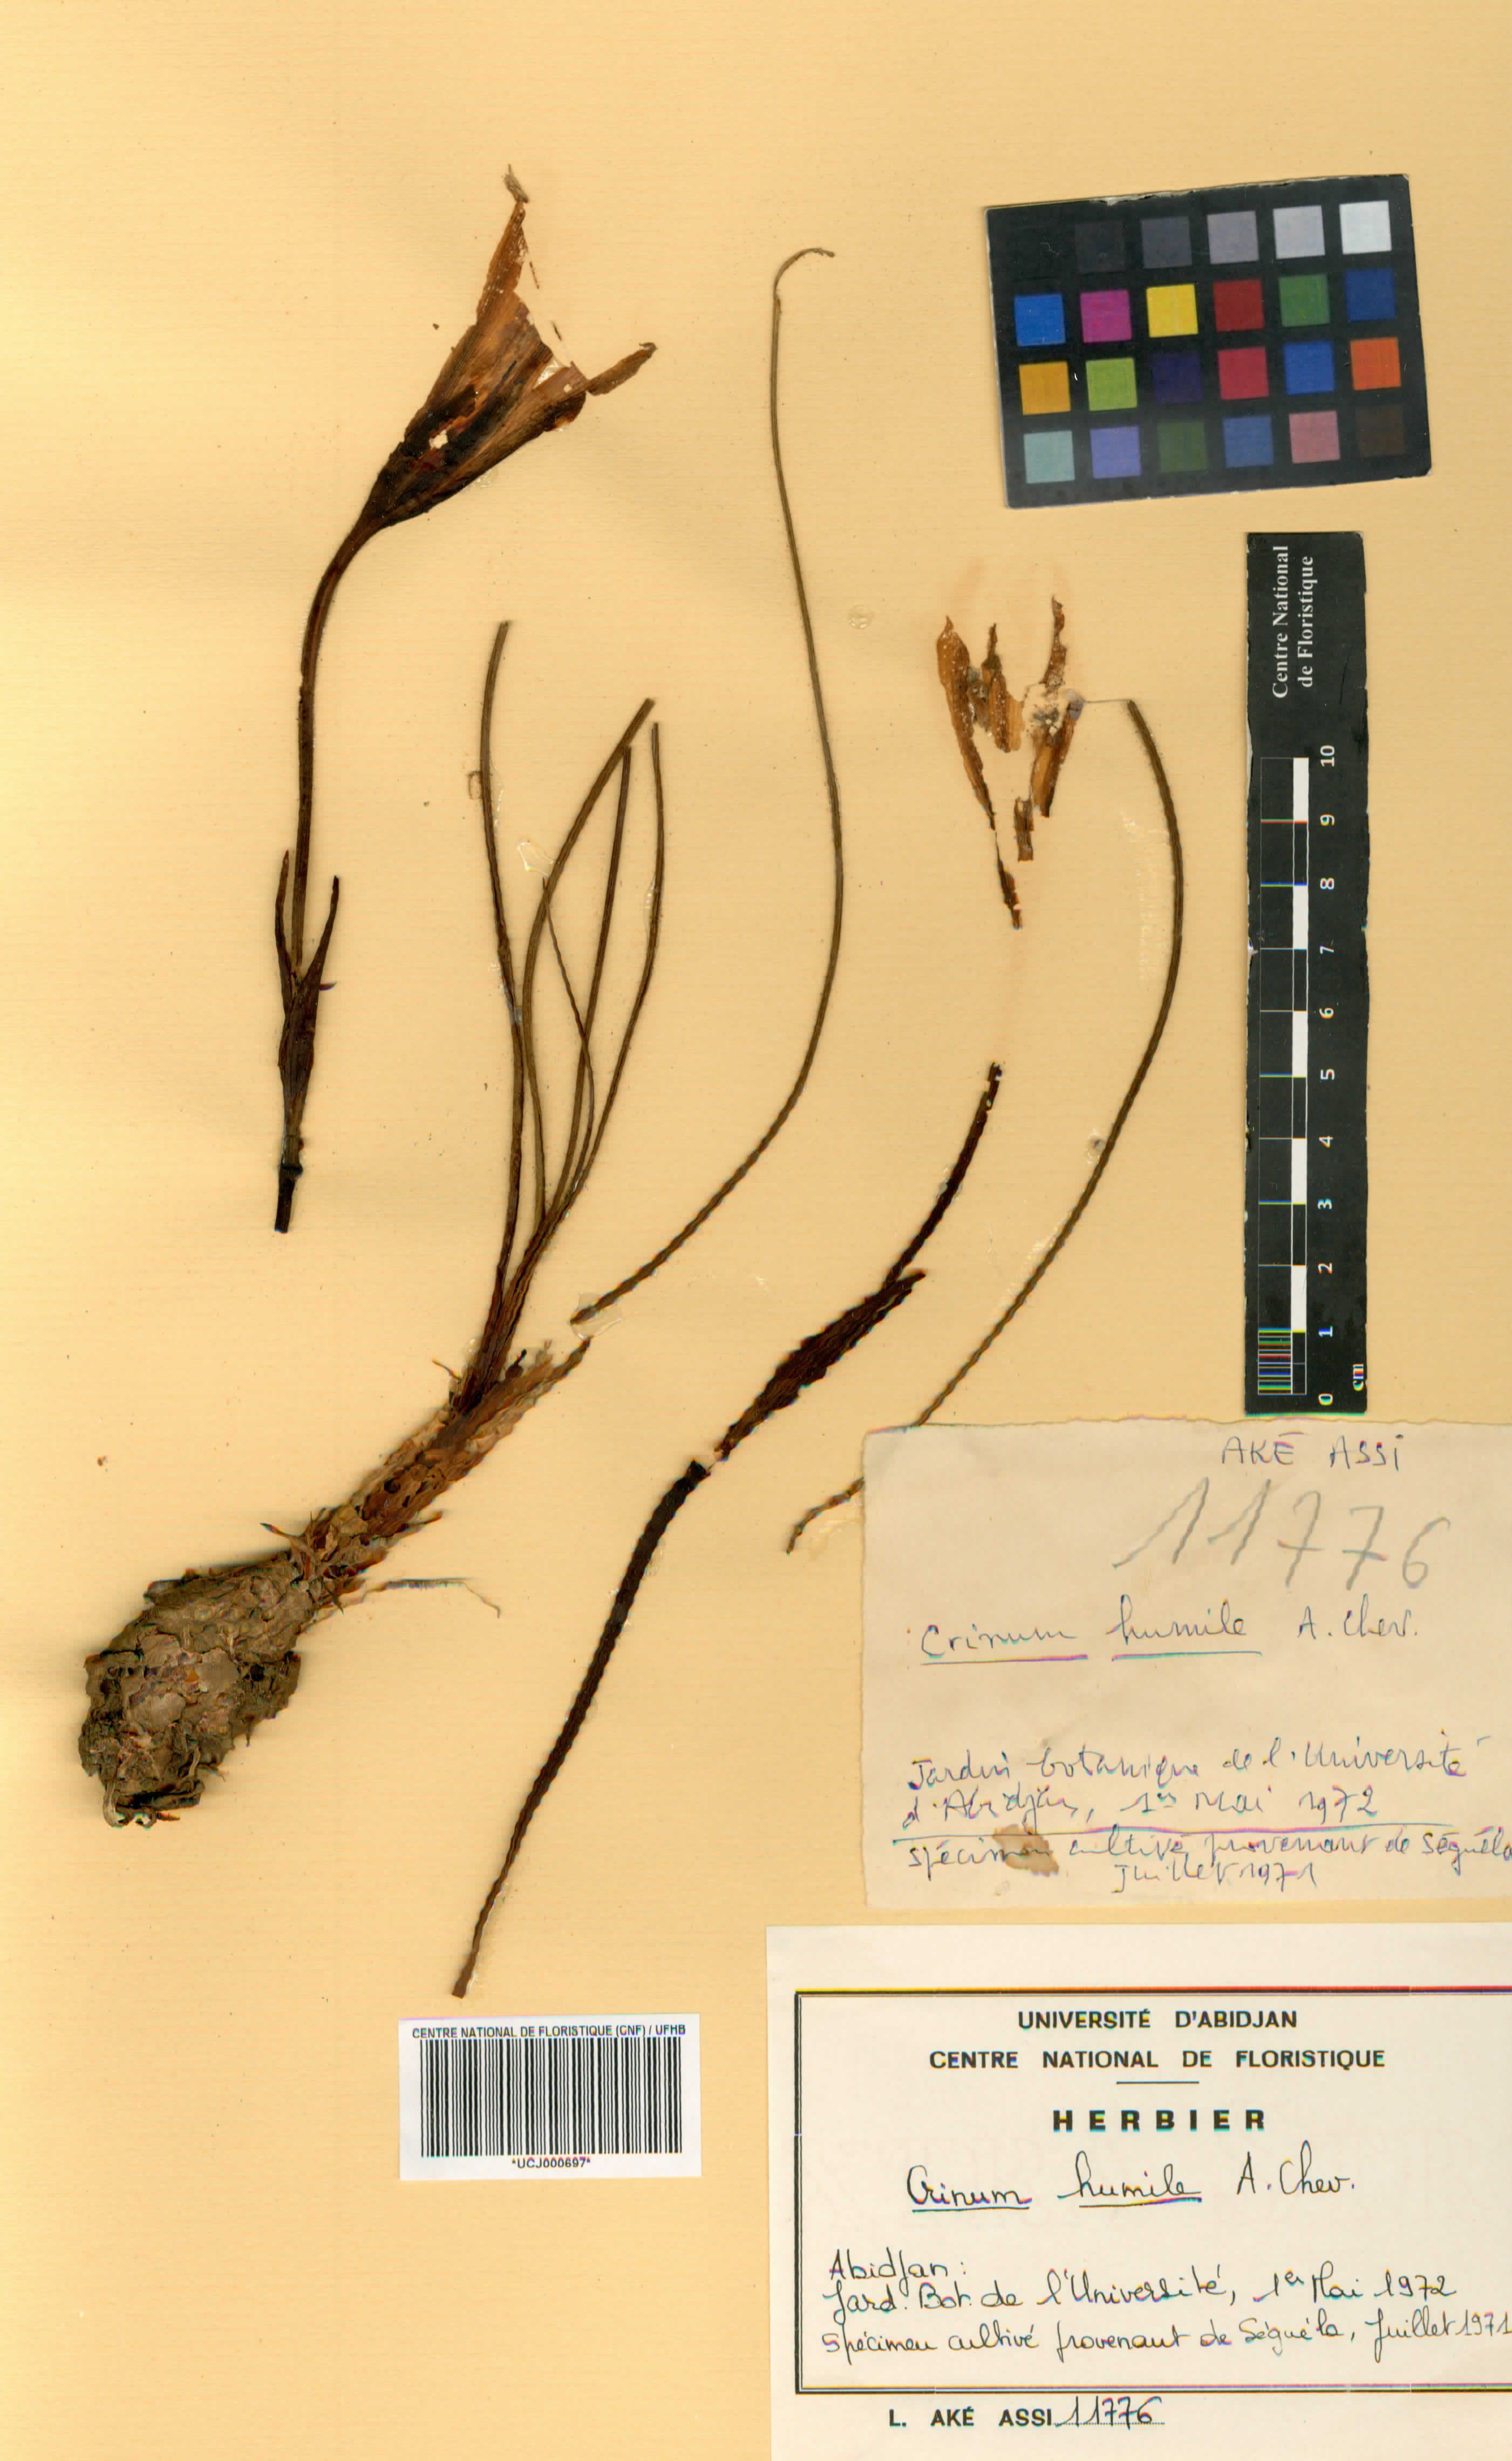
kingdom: Plantae
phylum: Tracheophyta
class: Liliopsida
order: Asparagales
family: Amaryllidaceae
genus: Crinum
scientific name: Crinum nubicum
